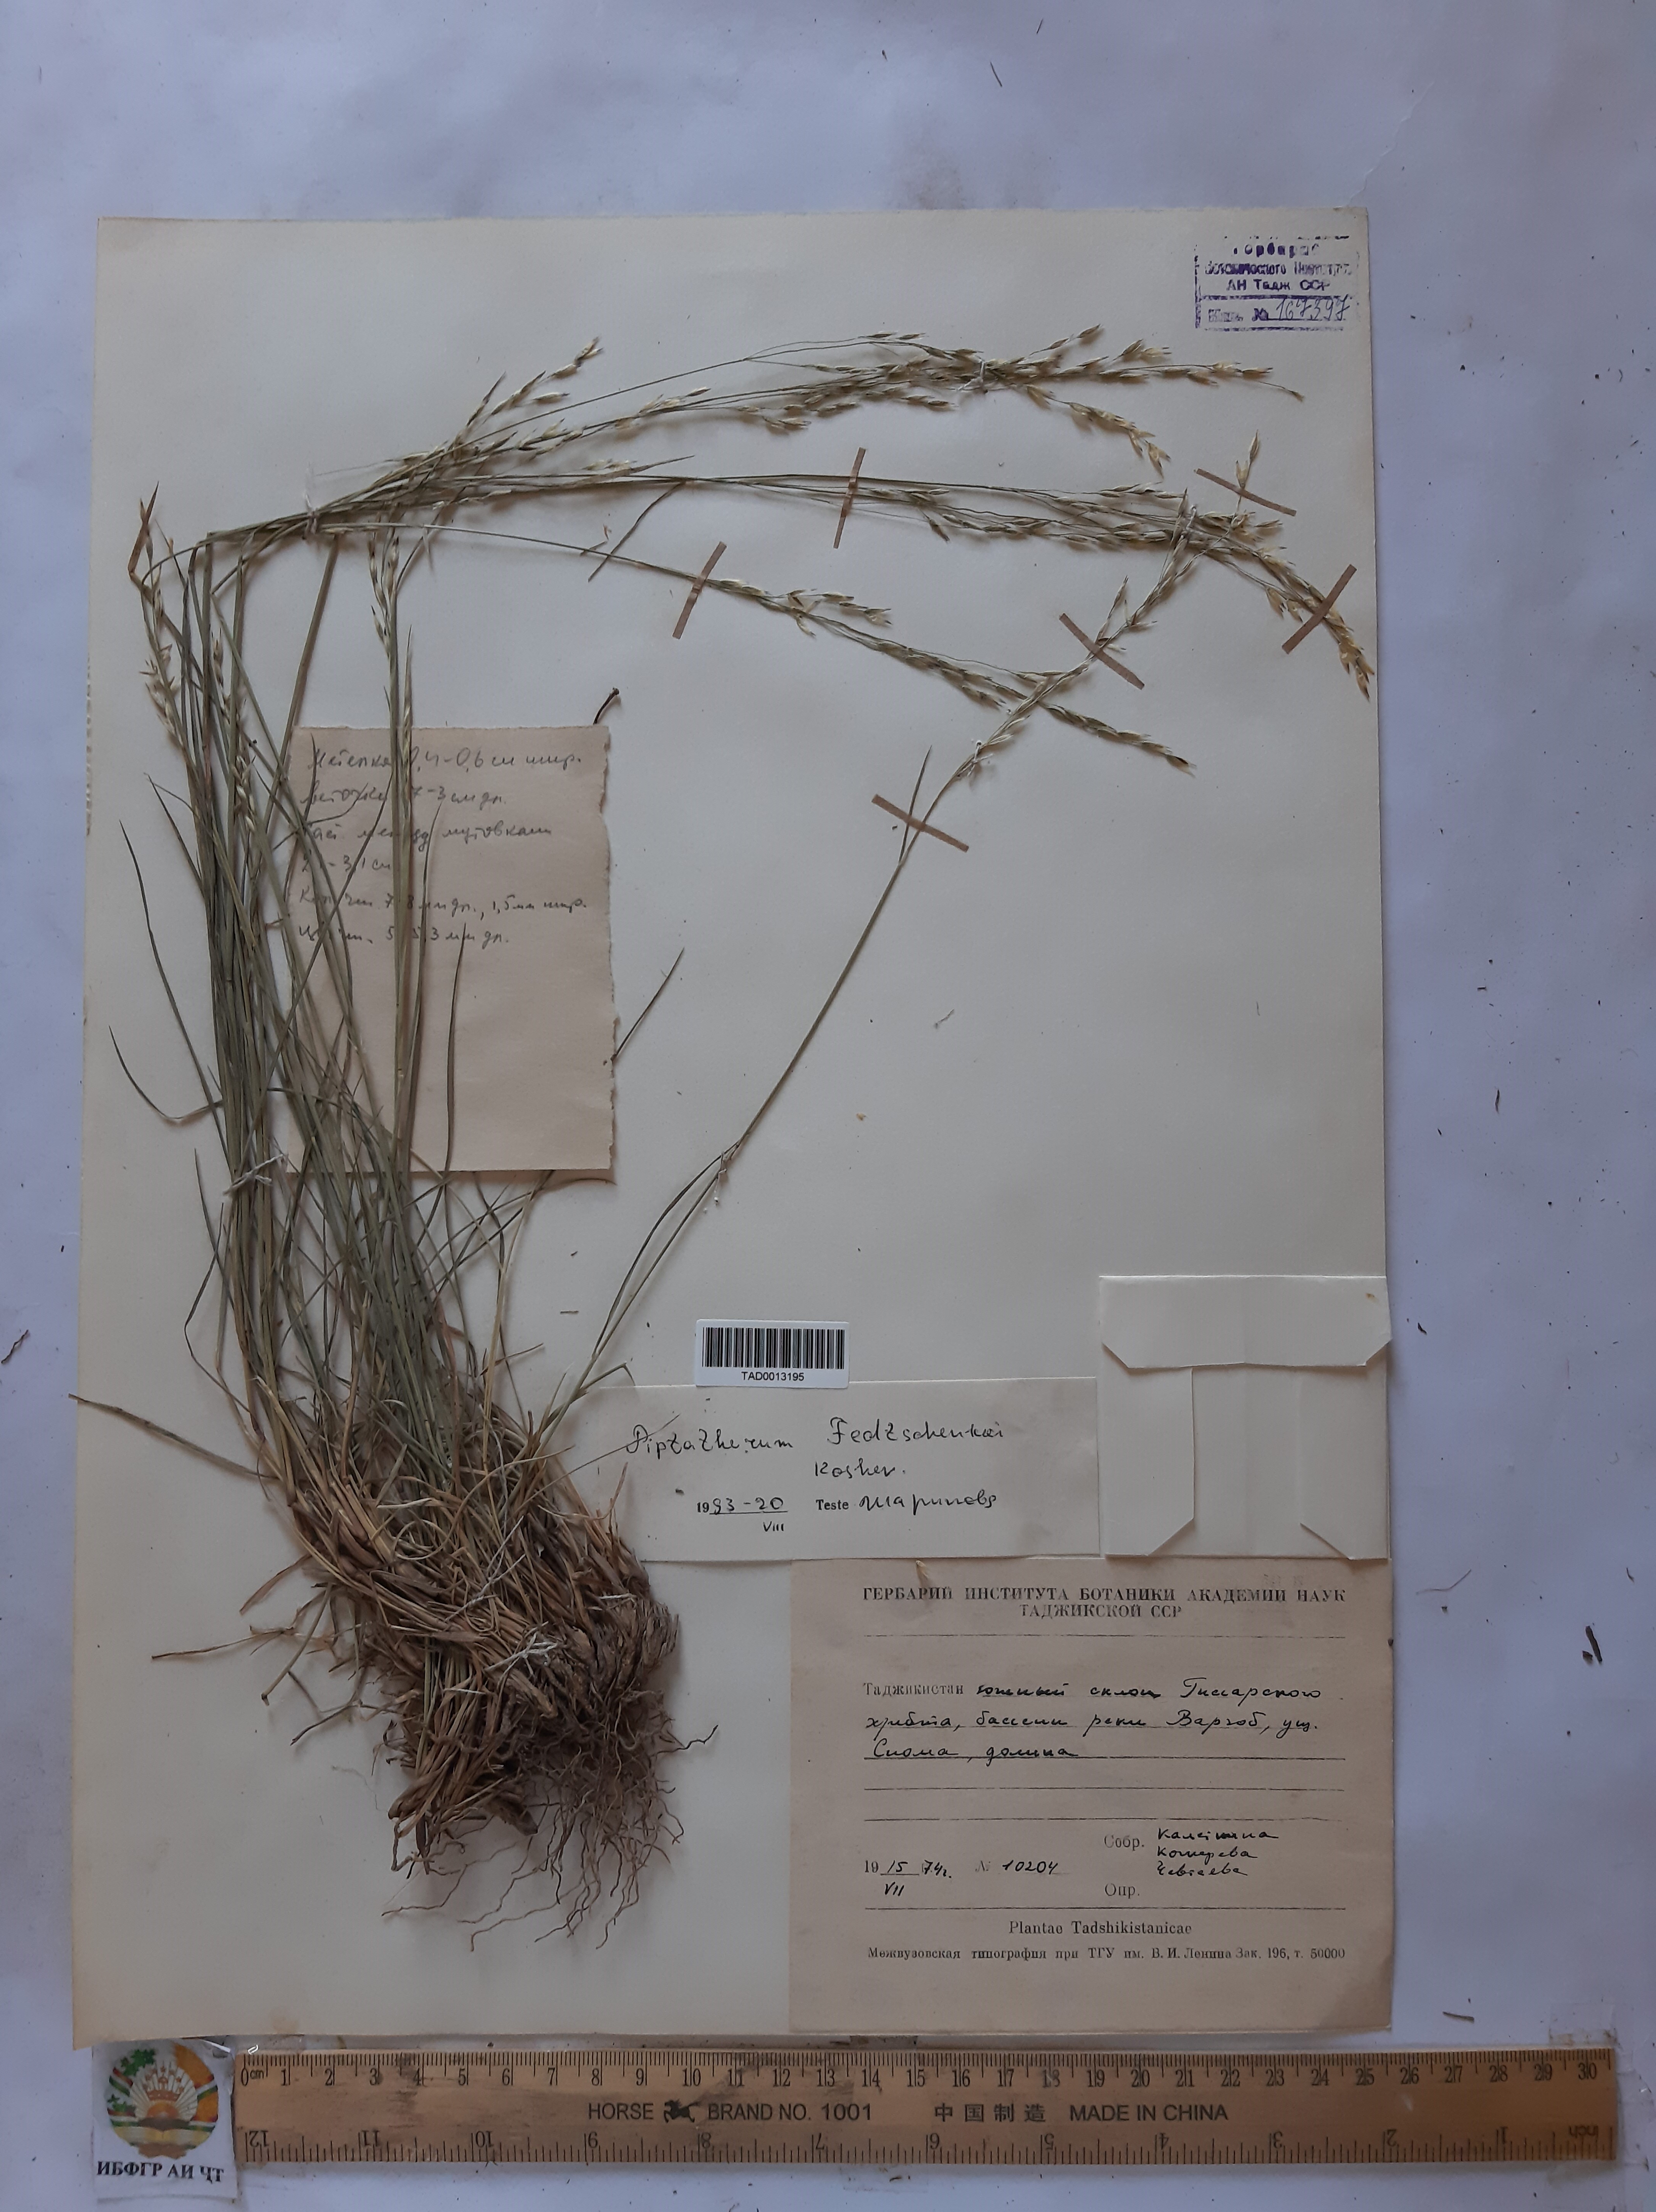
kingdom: Plantae
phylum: Tracheophyta
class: Liliopsida
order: Poales
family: Poaceae
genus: Piptatherum
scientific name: Piptatherum sogdianum
